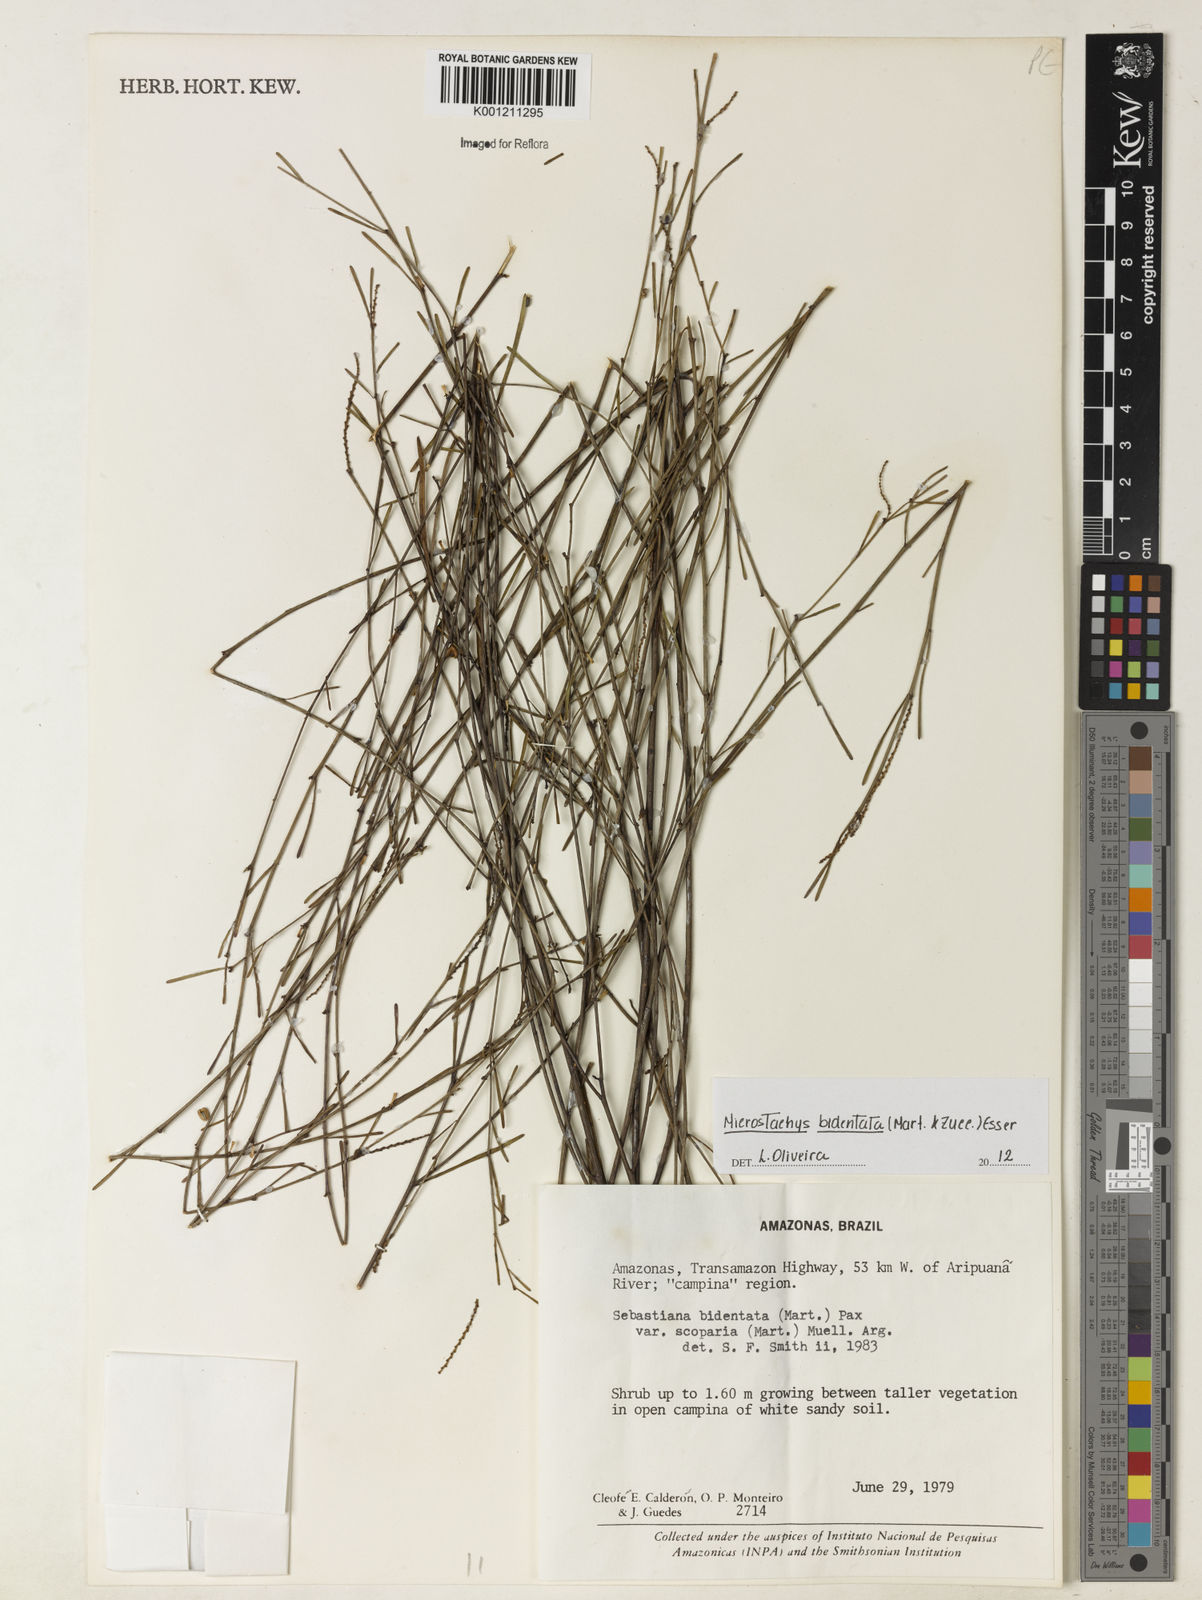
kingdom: Plantae
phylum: Tracheophyta
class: Magnoliopsida
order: Malpighiales
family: Euphorbiaceae
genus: Microstachys
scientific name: Microstachys bidentata
